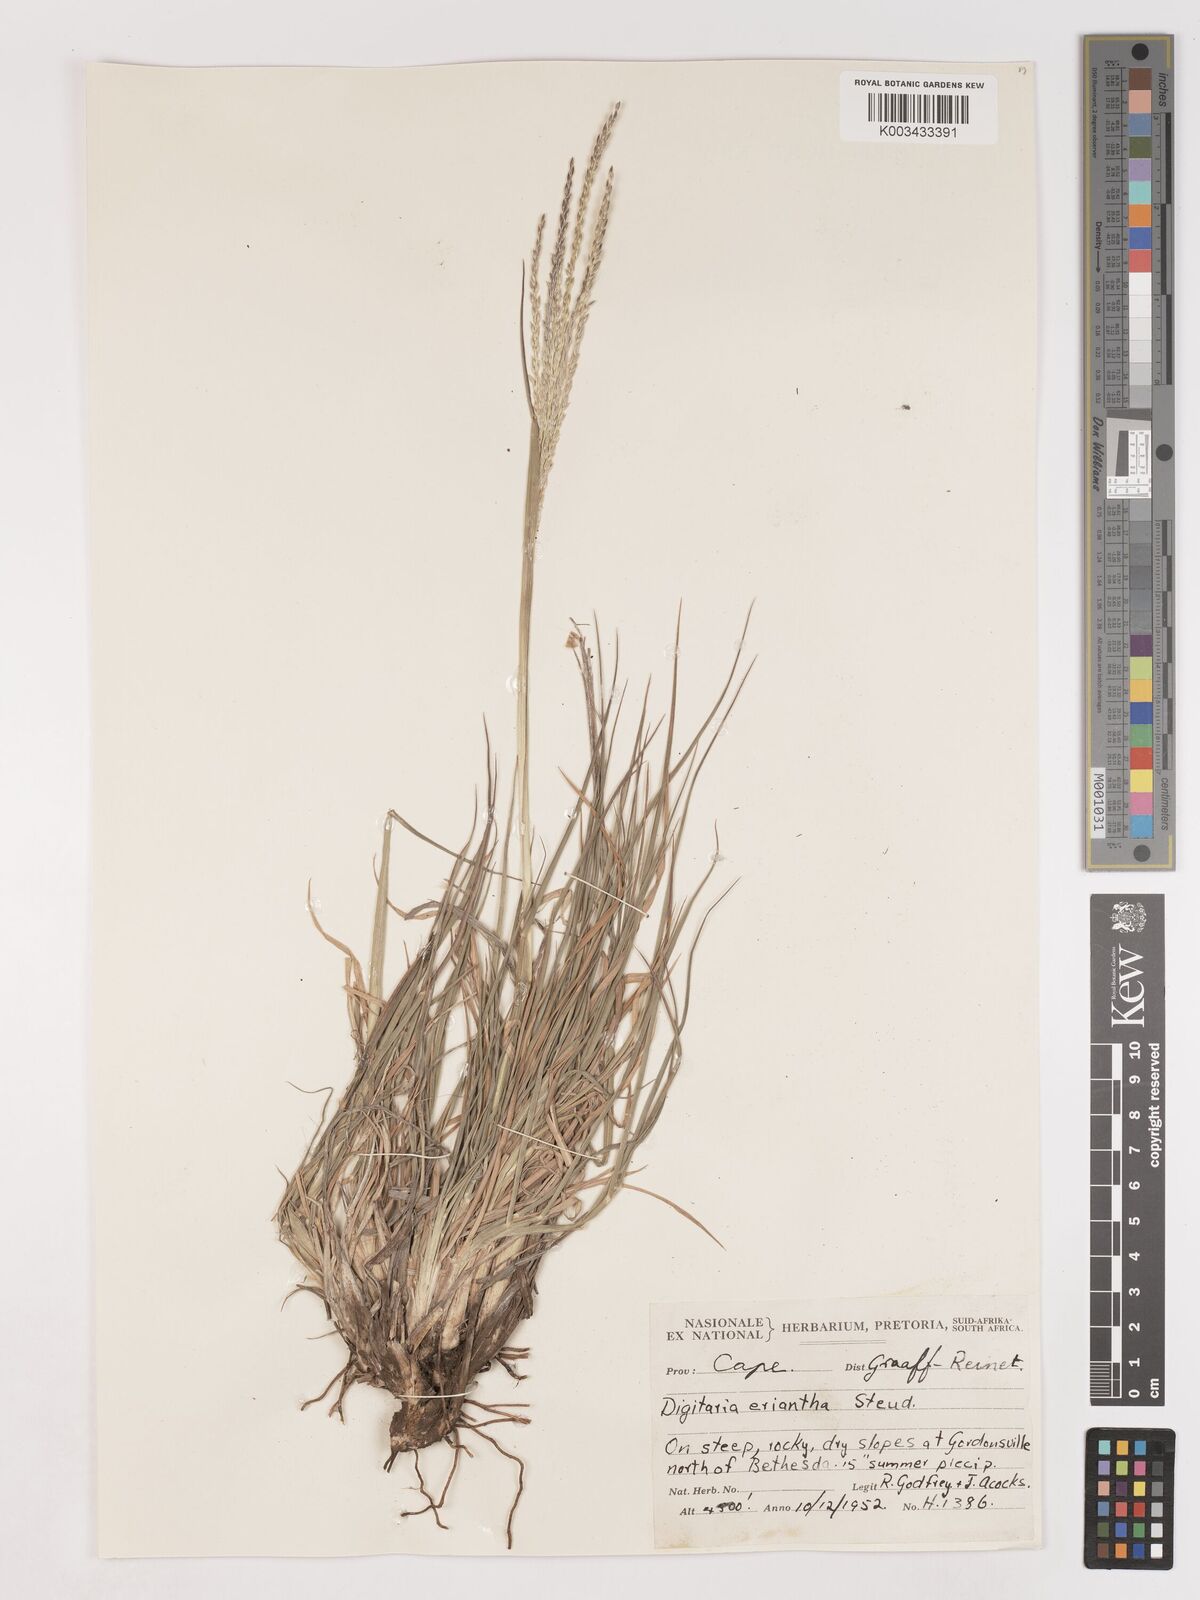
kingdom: Plantae
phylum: Tracheophyta
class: Liliopsida
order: Poales
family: Poaceae
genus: Digitaria
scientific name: Digitaria eriantha
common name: Digitgrass
